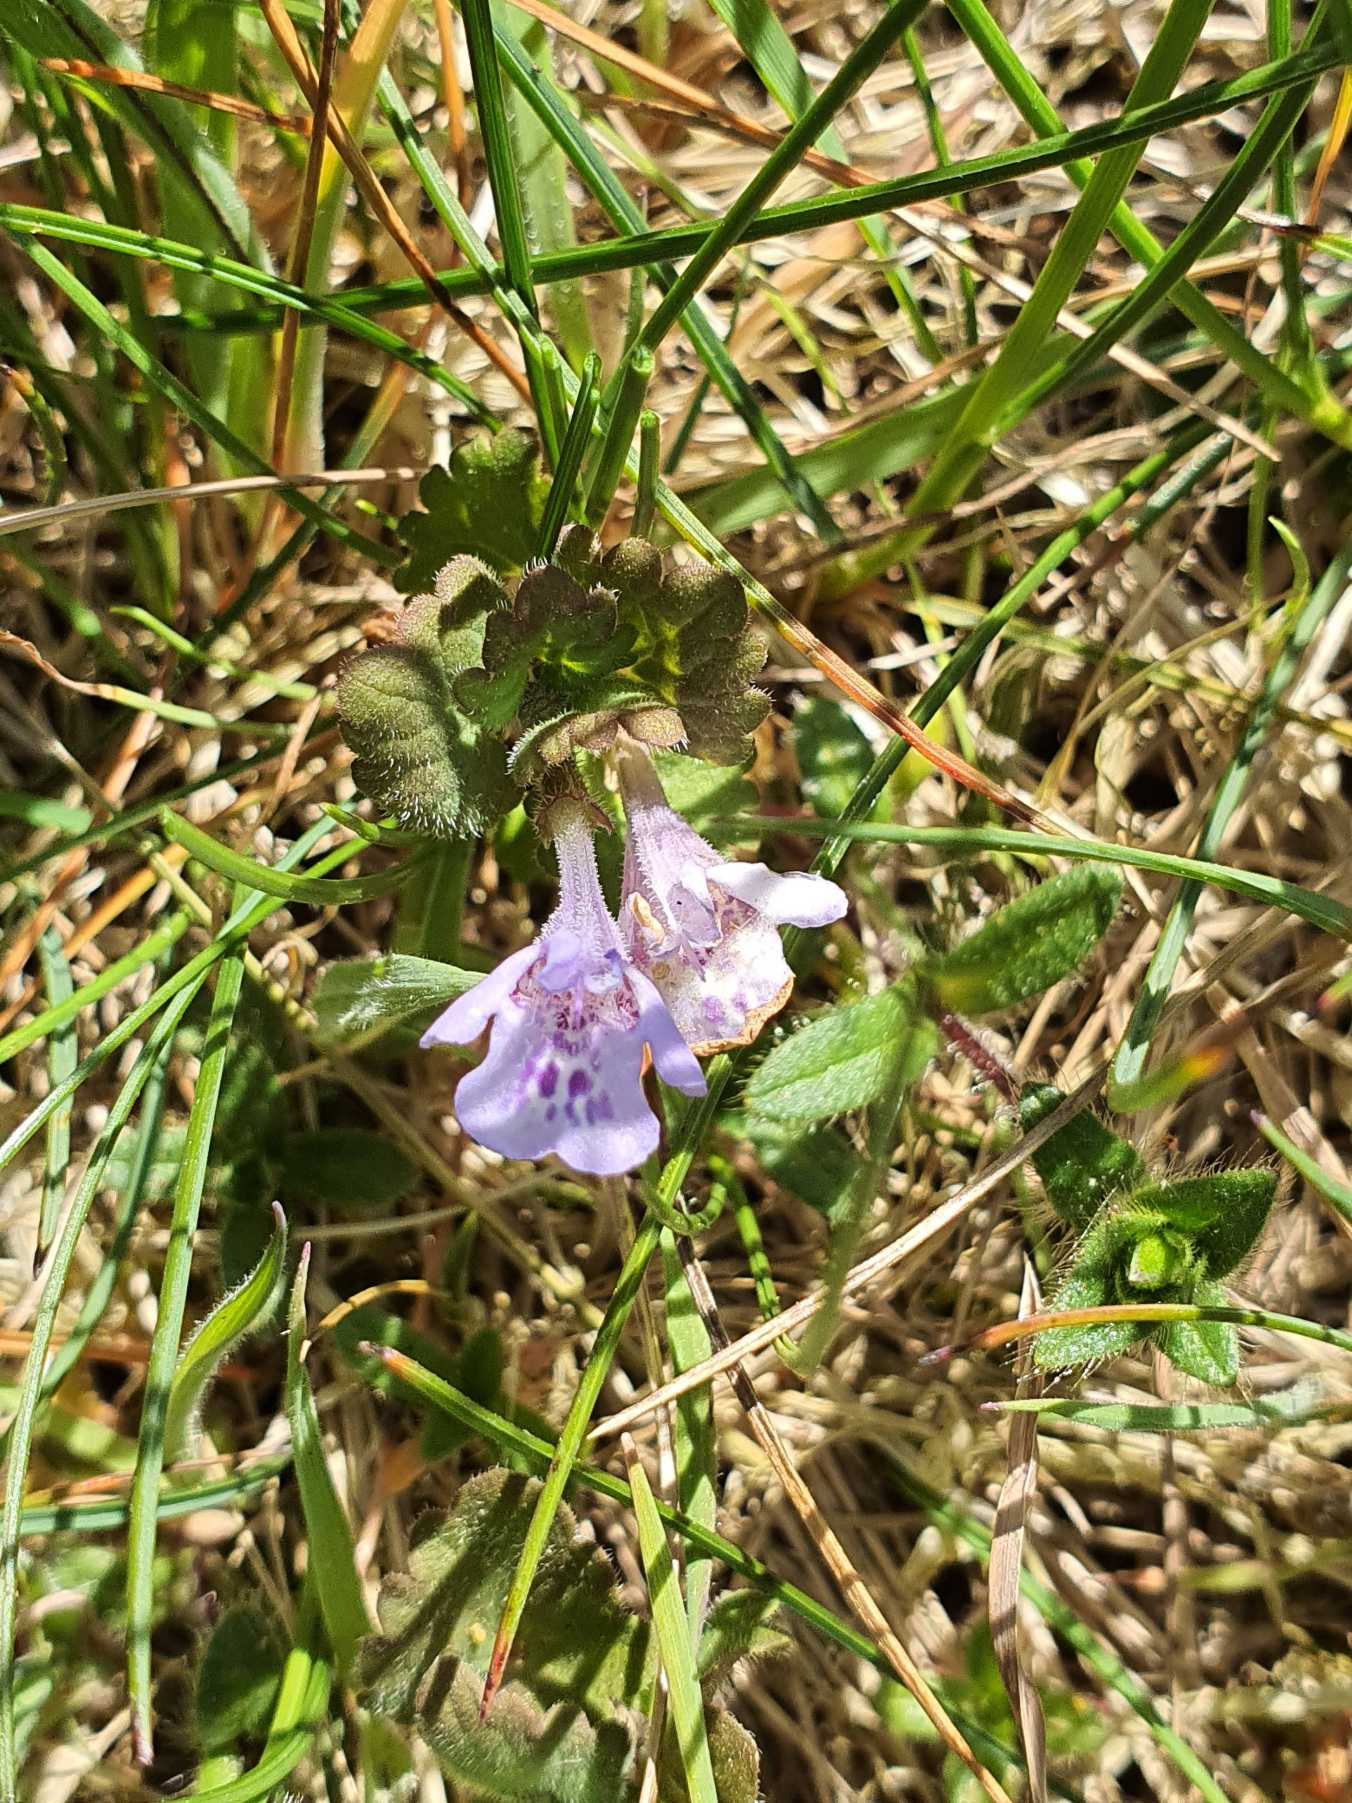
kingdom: Plantae
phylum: Tracheophyta
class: Magnoliopsida
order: Lamiales
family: Lamiaceae
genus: Glechoma
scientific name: Glechoma hederacea
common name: Korsknap
